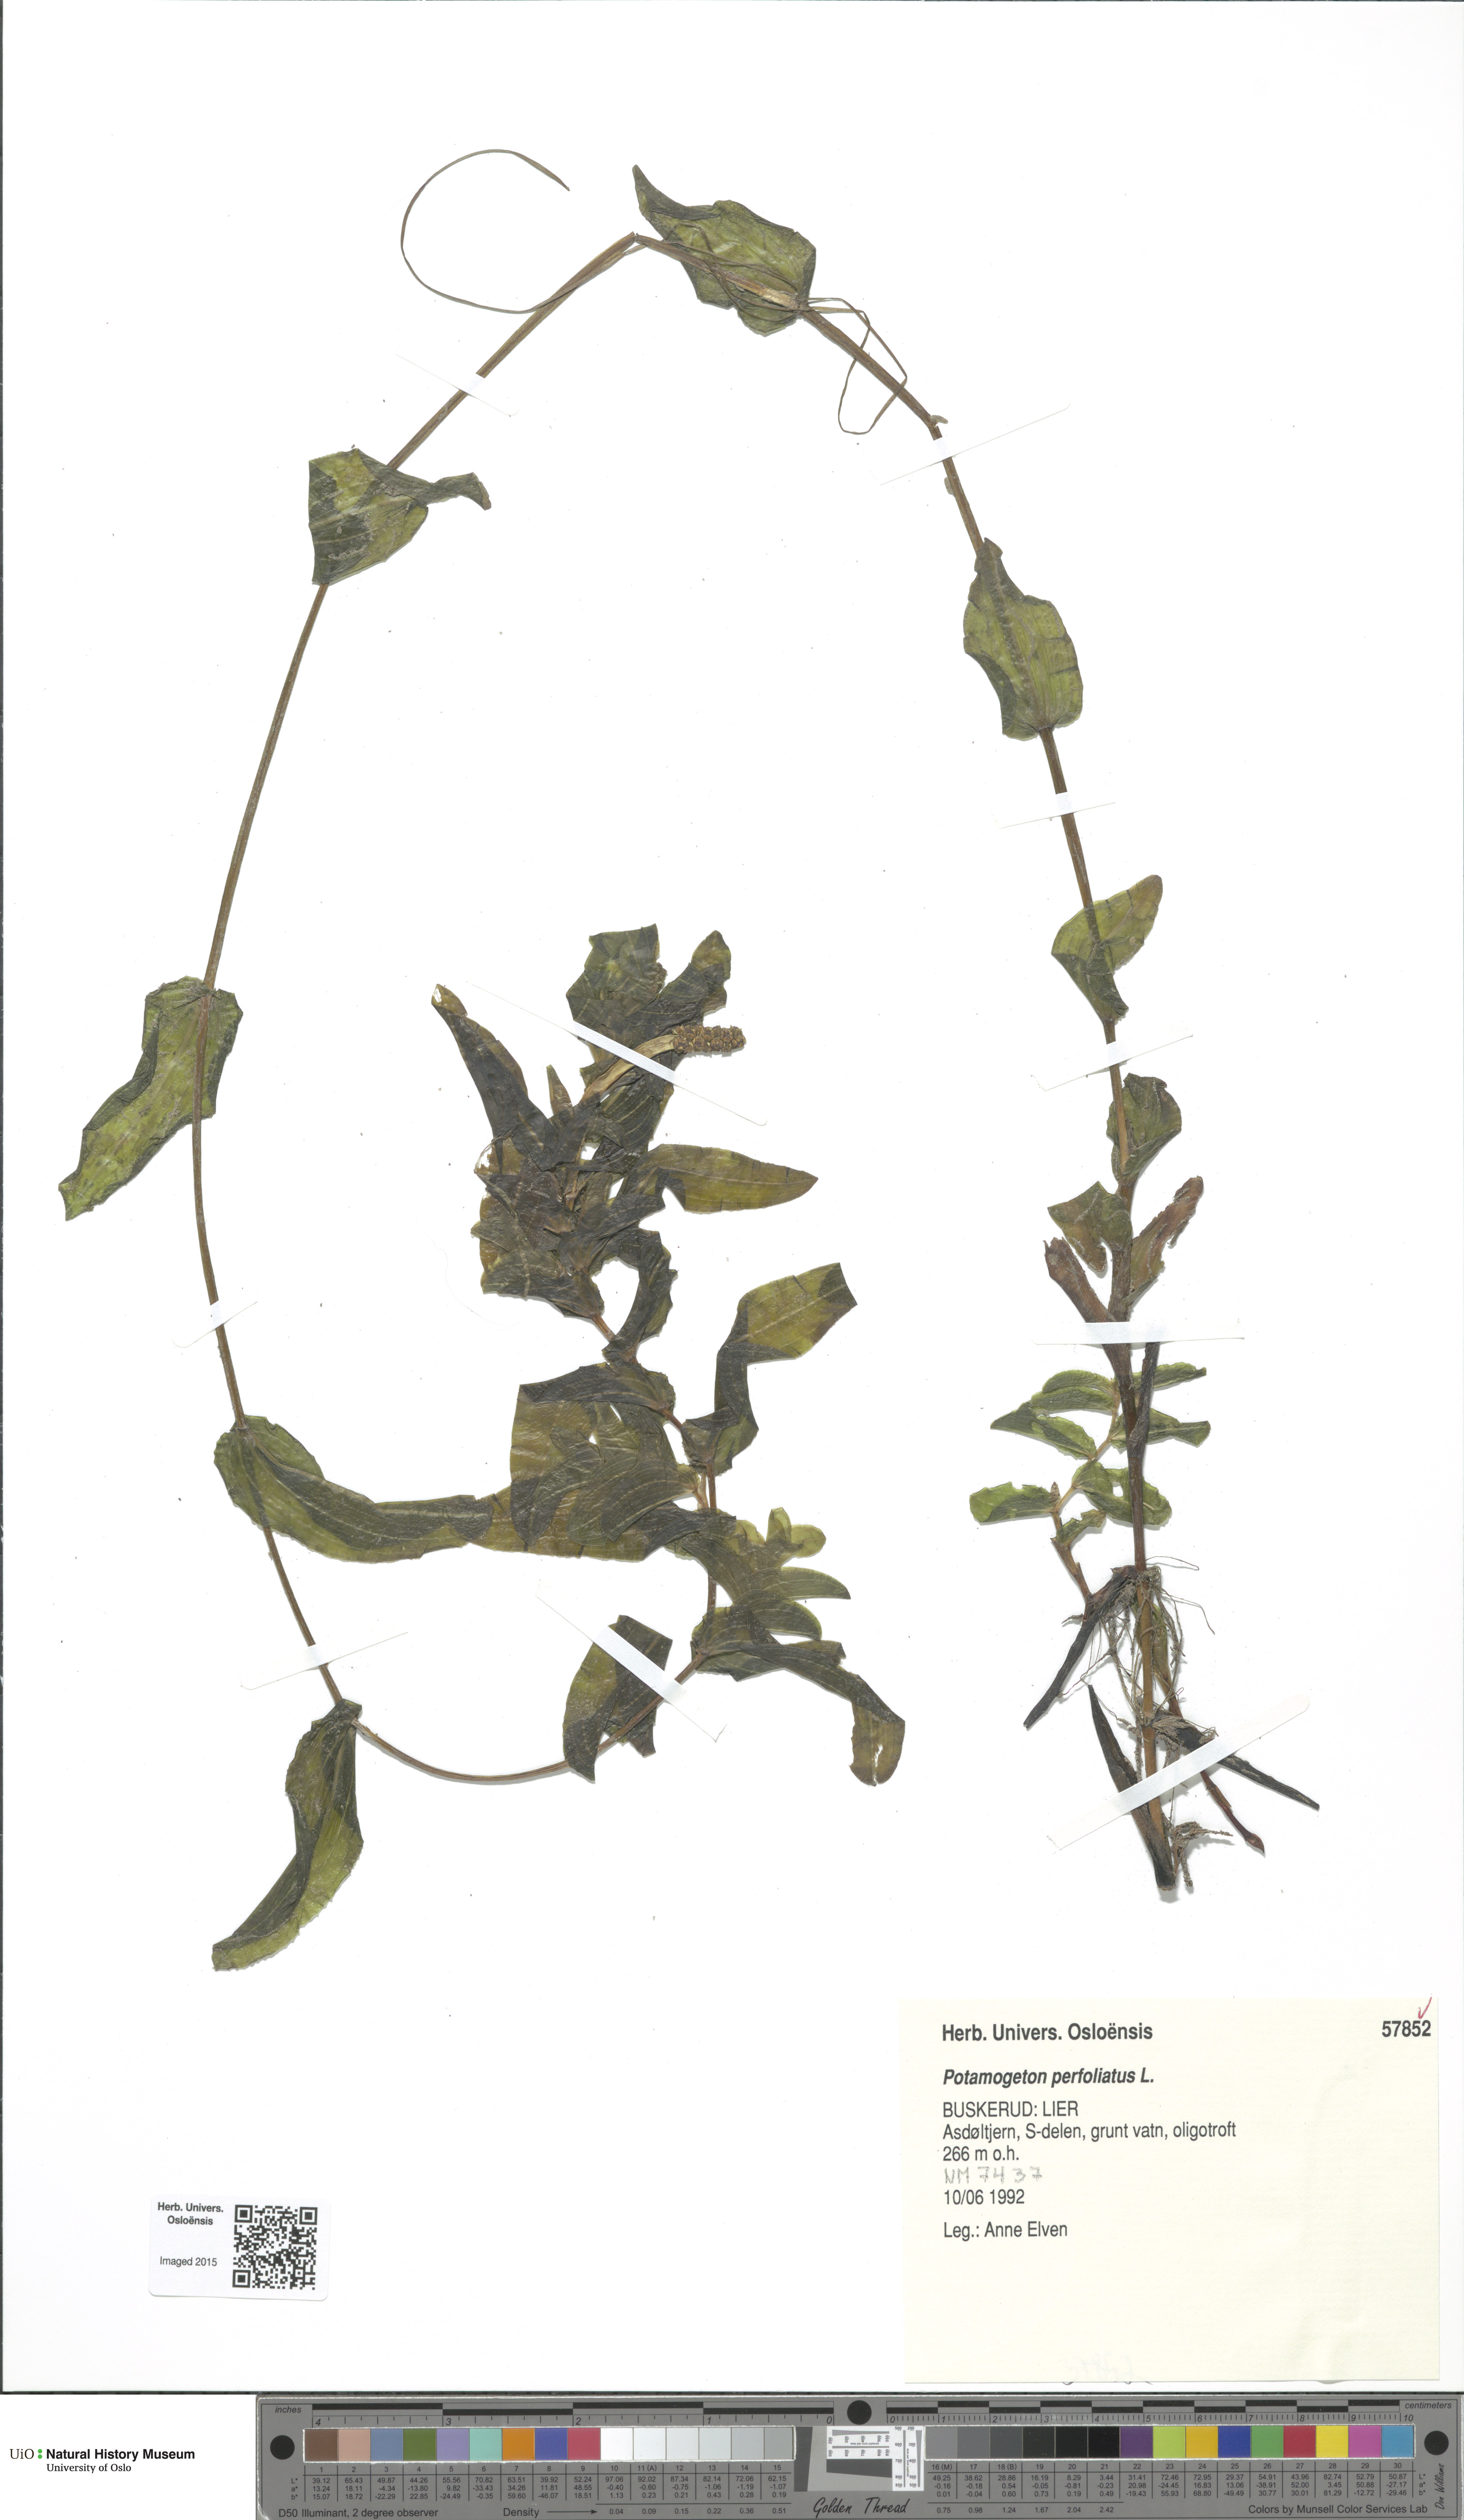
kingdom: Plantae
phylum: Tracheophyta
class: Liliopsida
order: Alismatales
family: Potamogetonaceae
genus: Potamogeton
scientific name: Potamogeton perfoliatus
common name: Perfoliate pondweed
